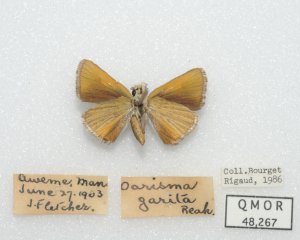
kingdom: Animalia
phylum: Arthropoda
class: Insecta
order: Lepidoptera
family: Hesperiidae
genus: Oarisma
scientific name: Oarisma garita
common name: Garita Skipperling
